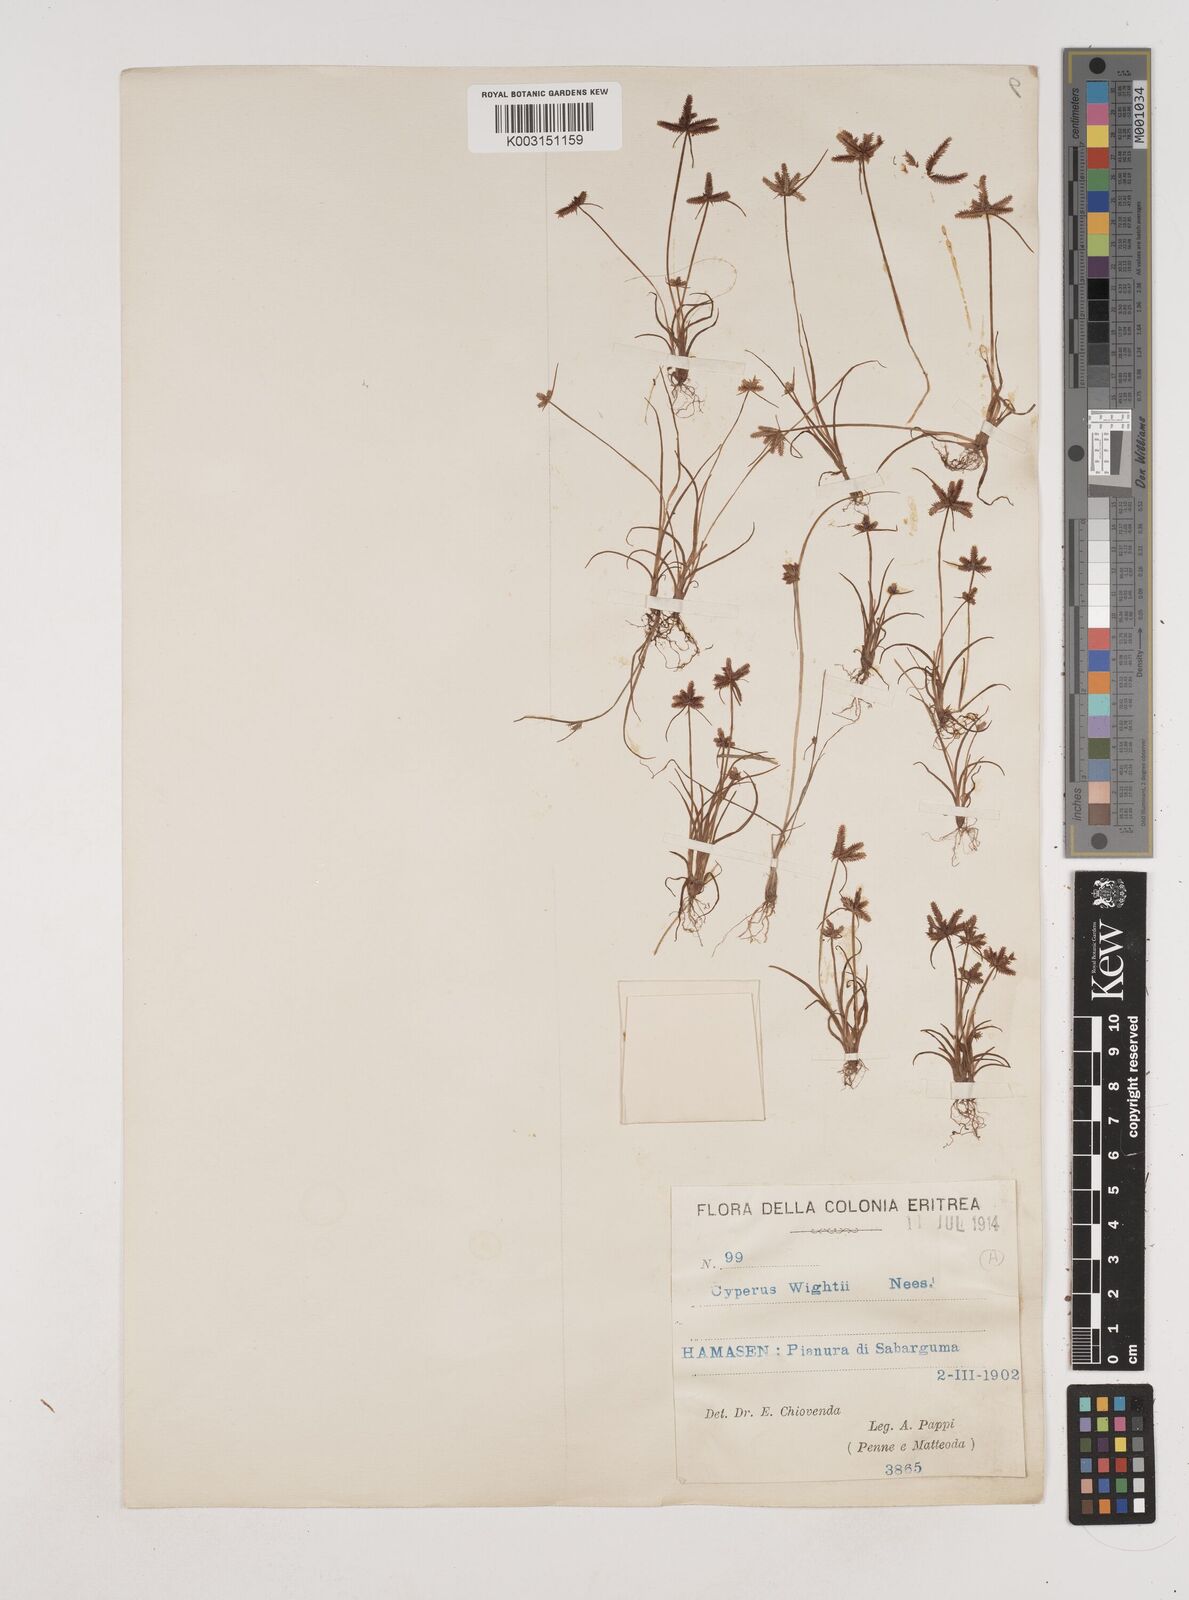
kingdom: Plantae
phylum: Tracheophyta
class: Liliopsida
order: Poales
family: Cyperaceae
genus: Cyperus
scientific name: Cyperus rubicundus
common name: Coco-grass
